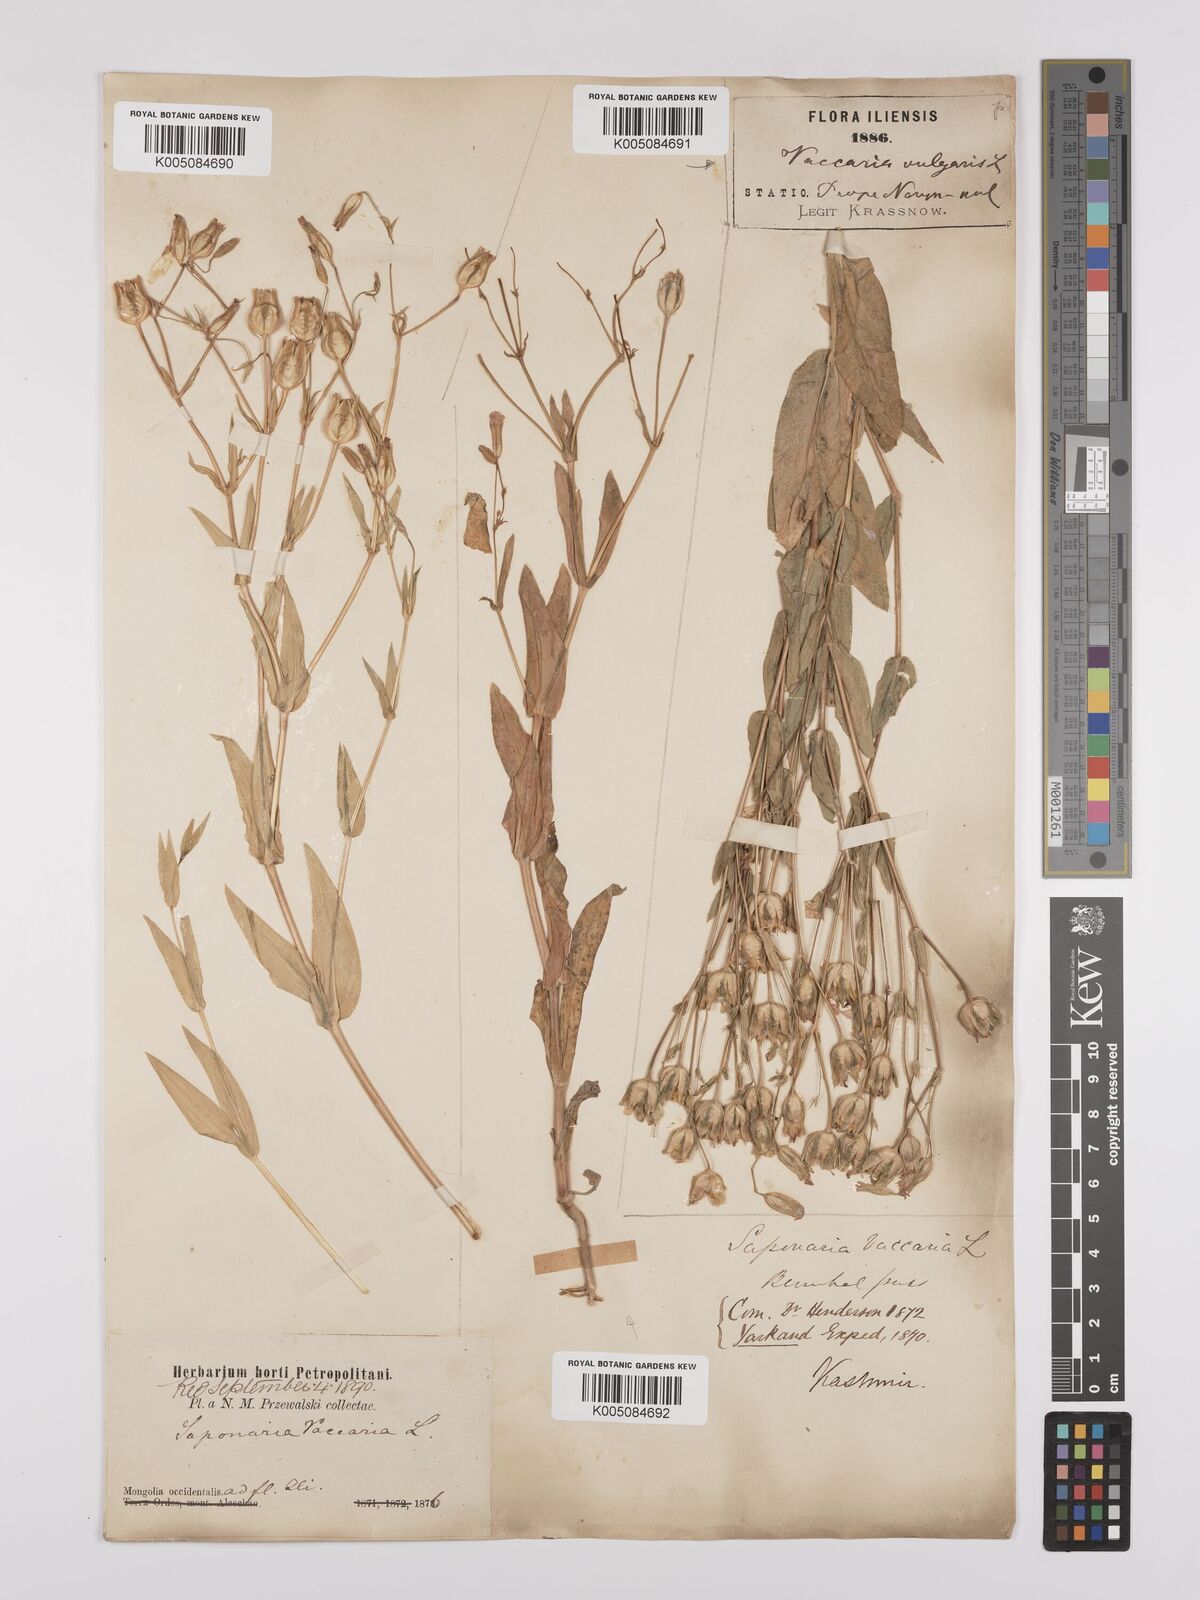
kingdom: Plantae
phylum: Tracheophyta
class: Magnoliopsida
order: Caryophyllales
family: Caryophyllaceae
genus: Gypsophila
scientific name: Gypsophila vaccaria
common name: Cow soapwort
